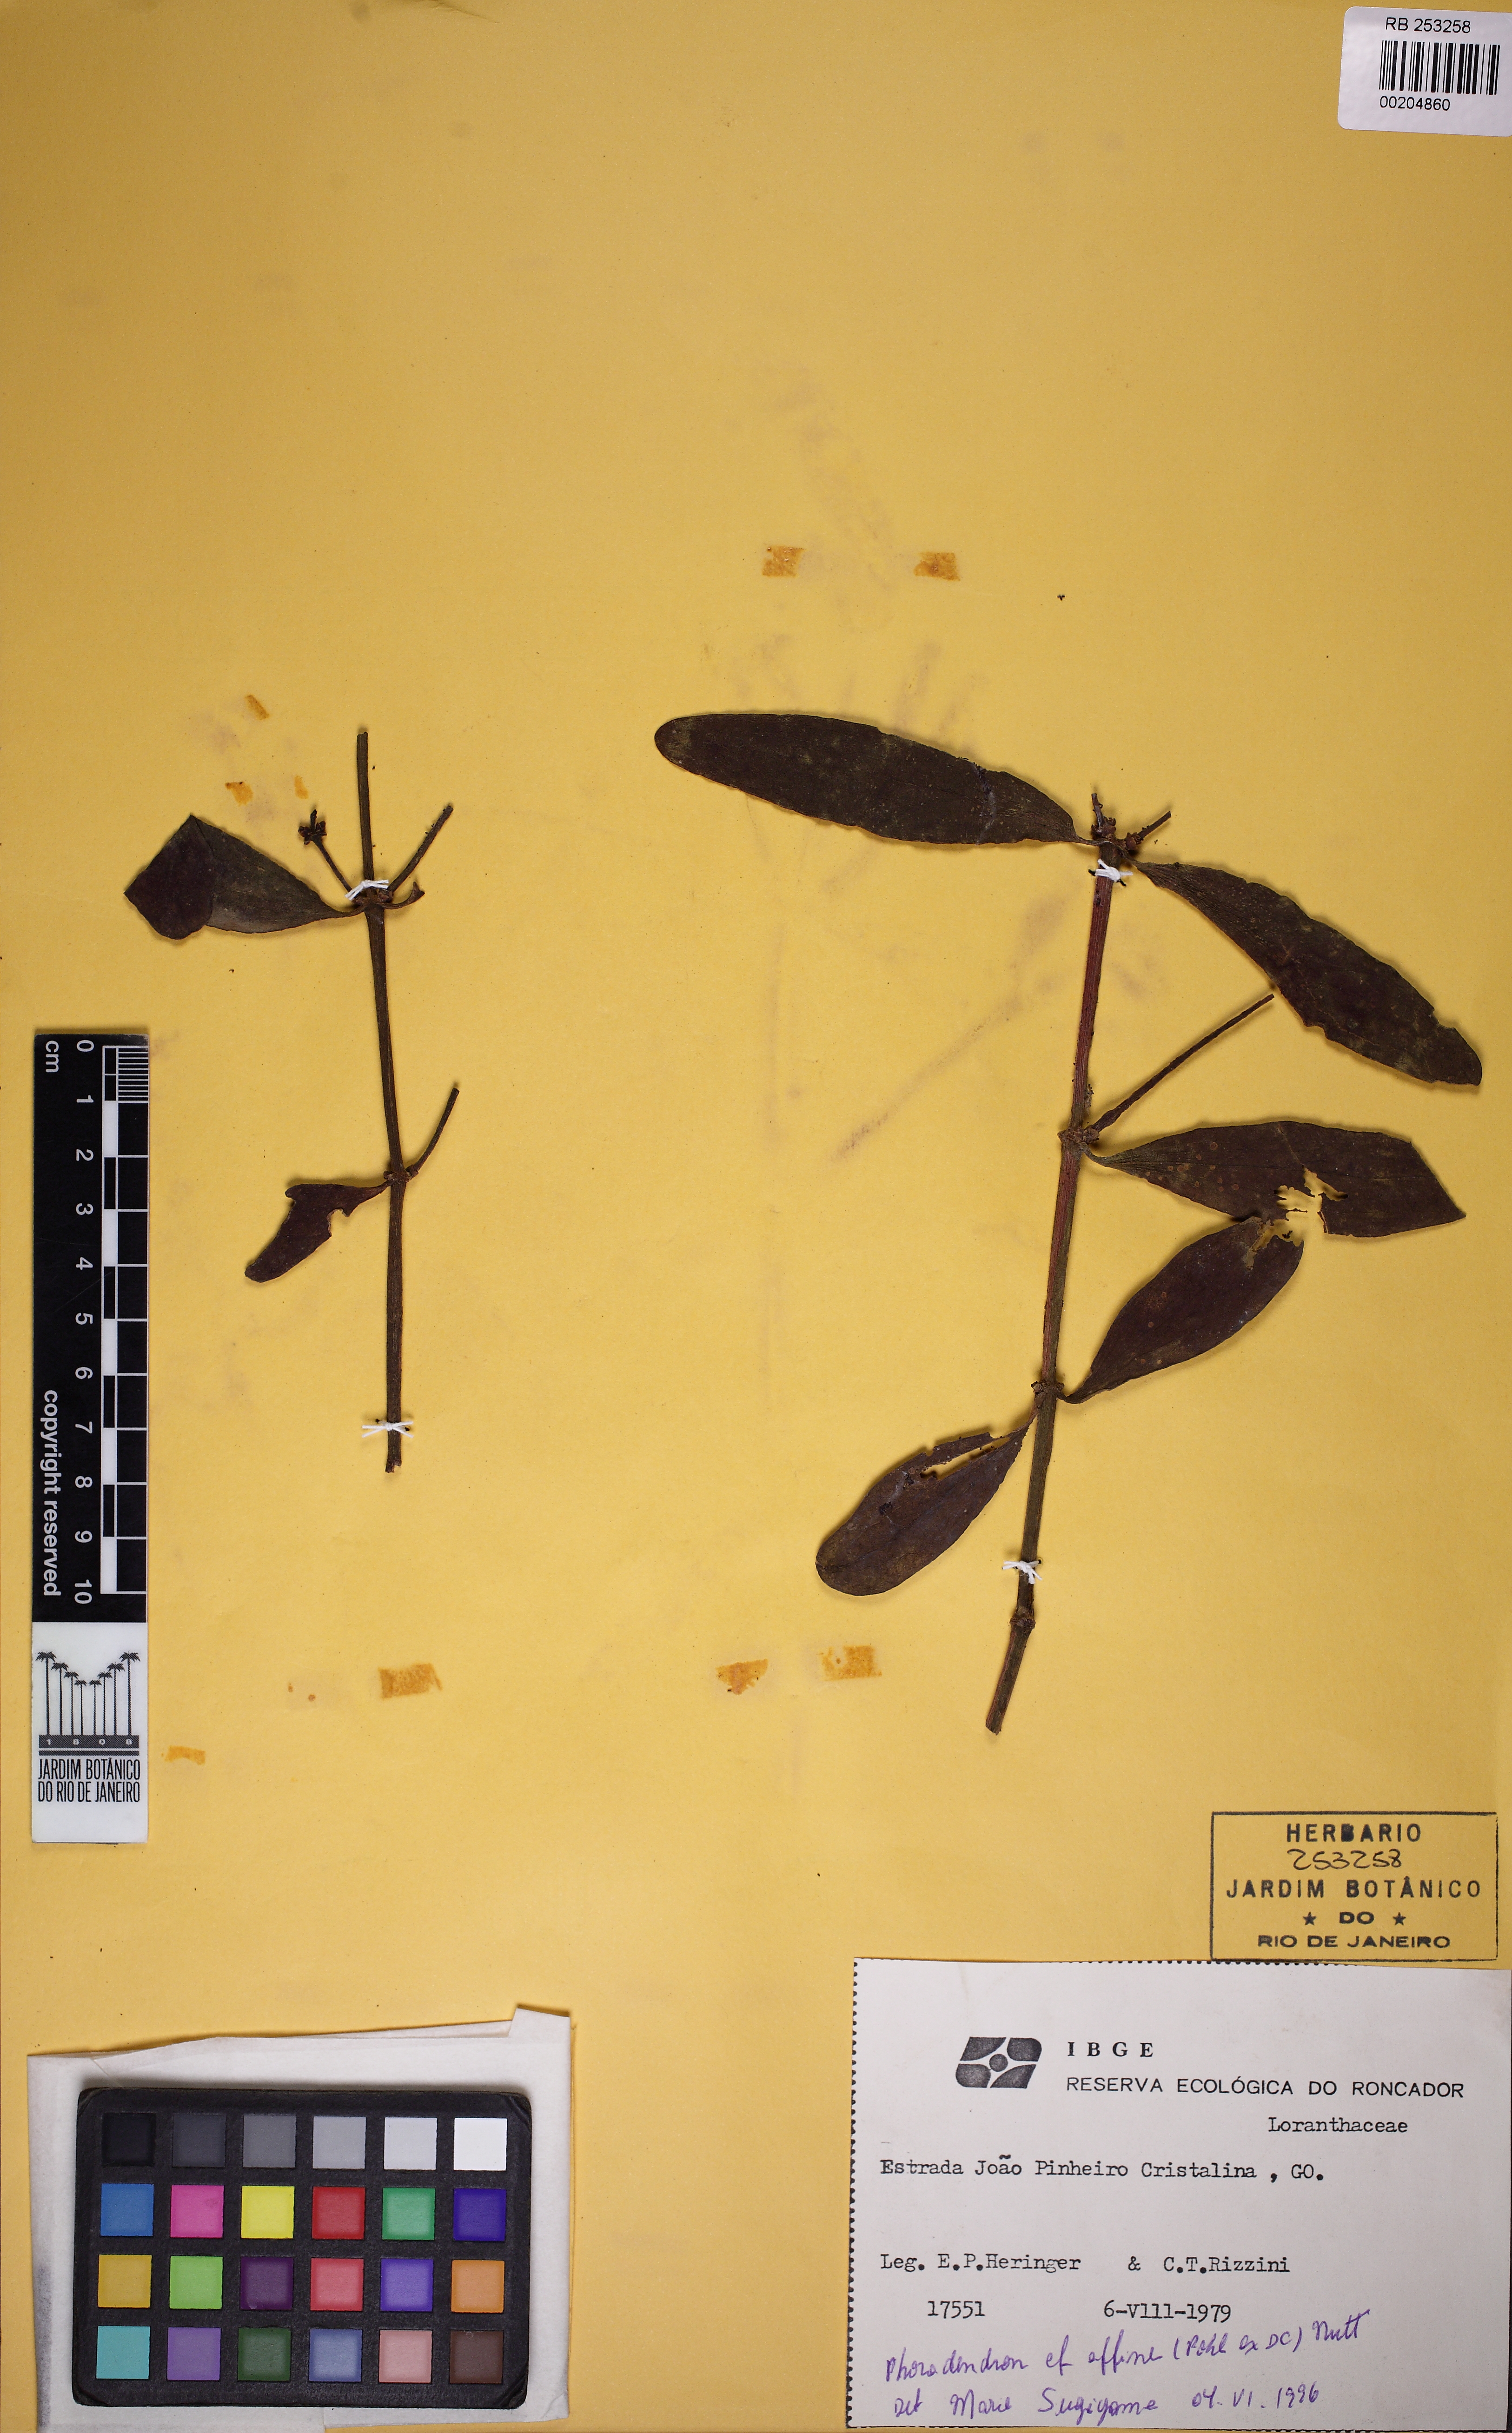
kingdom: Plantae
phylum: Tracheophyta
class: Magnoliopsida
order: Santalales
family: Viscaceae
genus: Phoradendron
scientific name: Phoradendron affine
